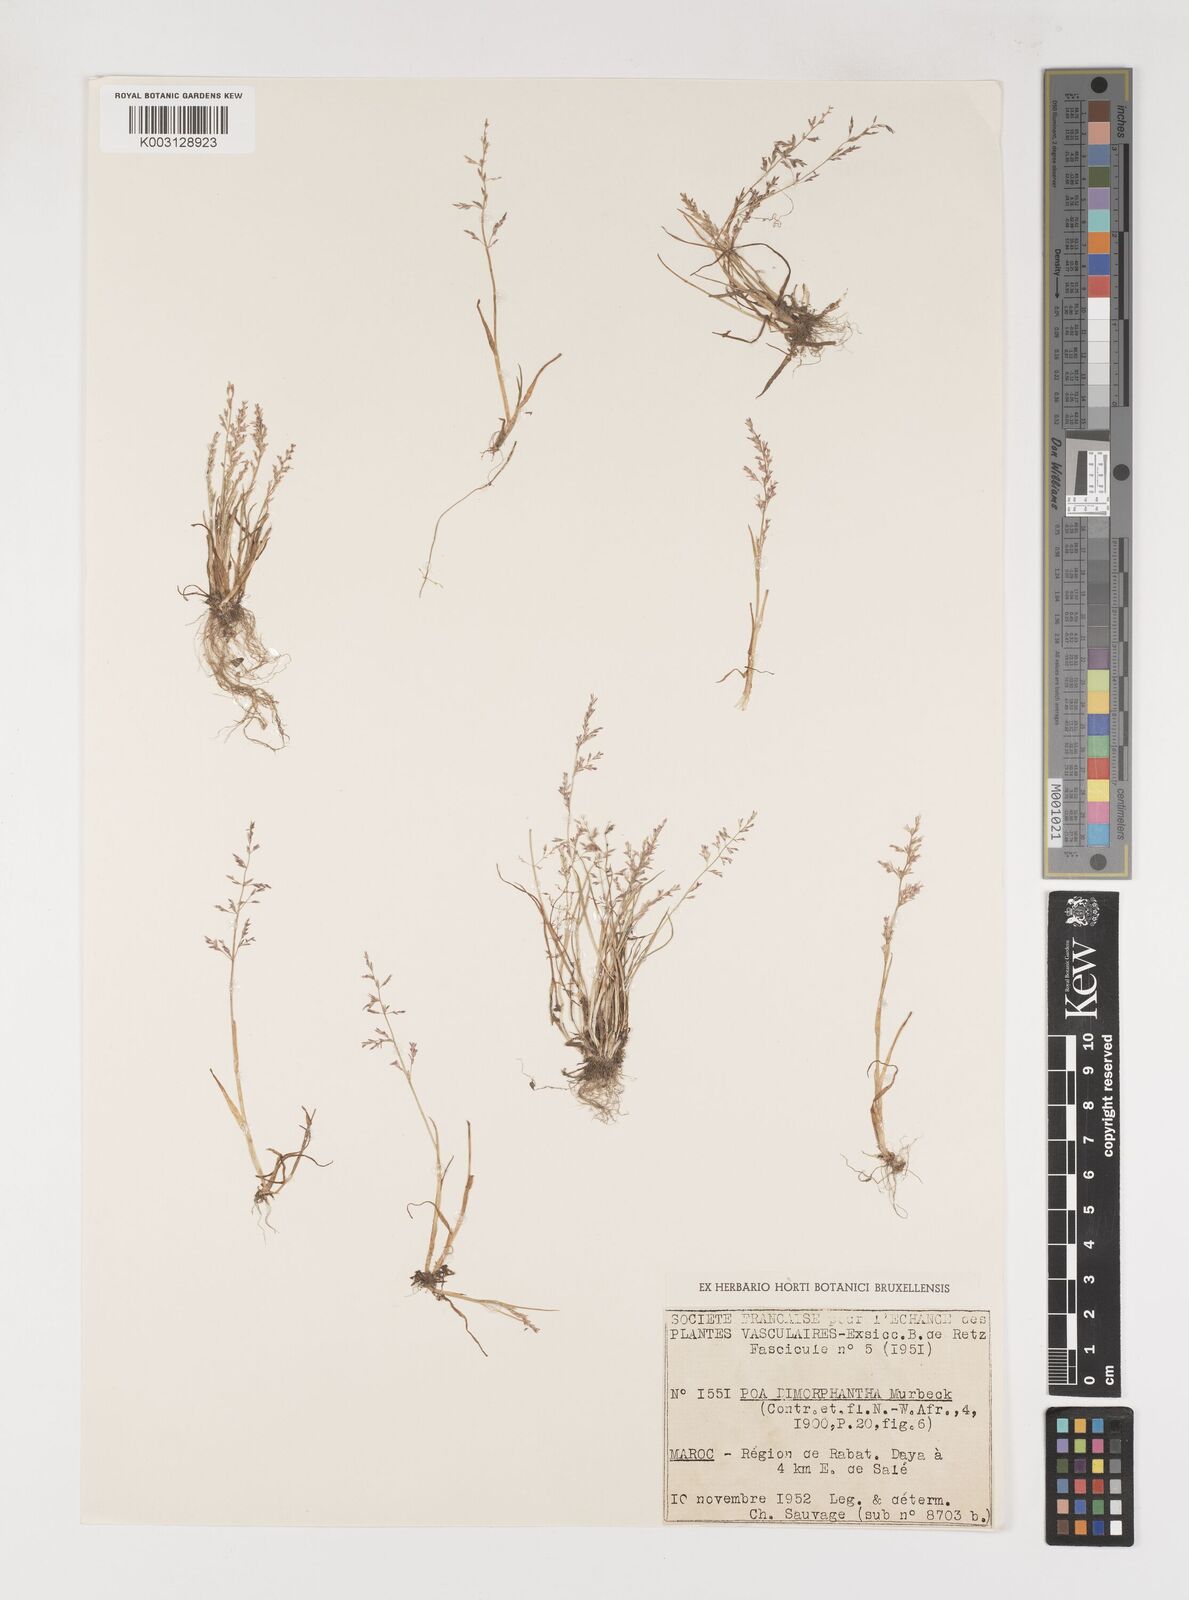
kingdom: Plantae
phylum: Tracheophyta
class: Liliopsida
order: Poales
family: Poaceae
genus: Poa
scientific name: Poa dimorphantha
